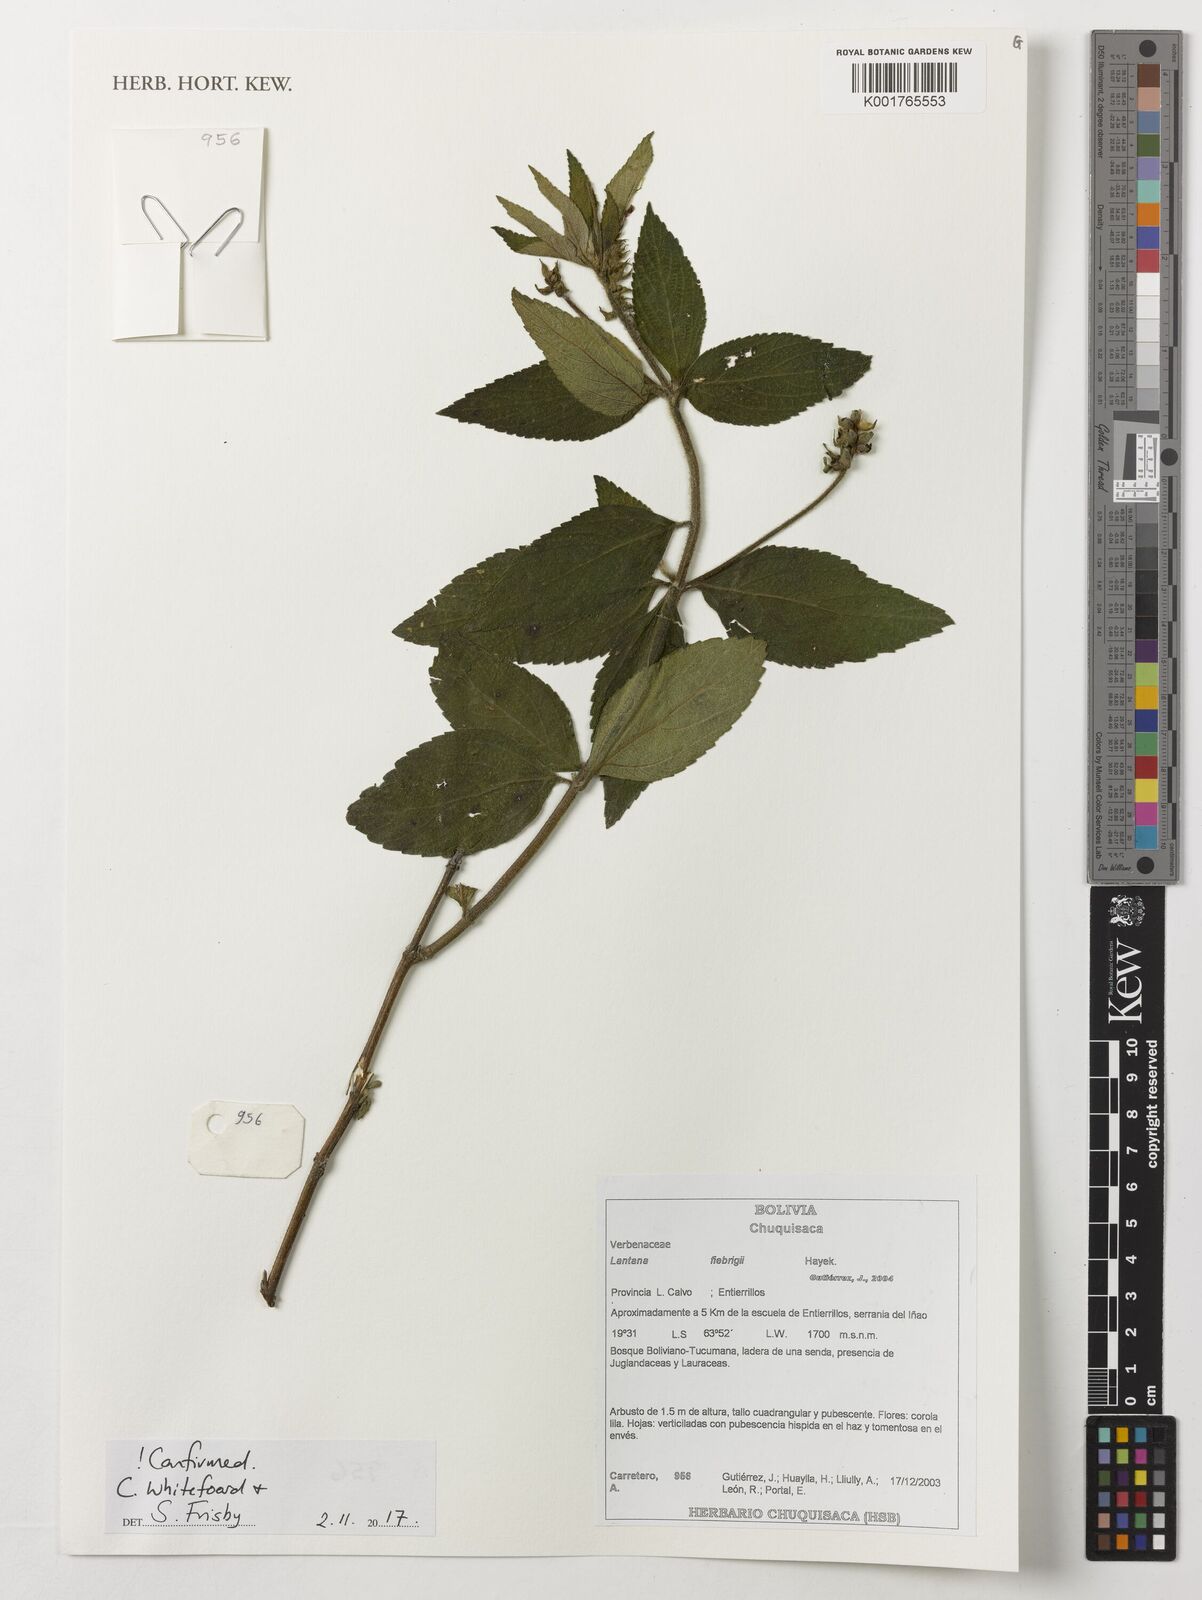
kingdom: Plantae
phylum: Tracheophyta
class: Magnoliopsida
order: Lamiales
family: Verbenaceae
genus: Lantana
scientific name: Lantana trifolia
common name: Sweet-sage
